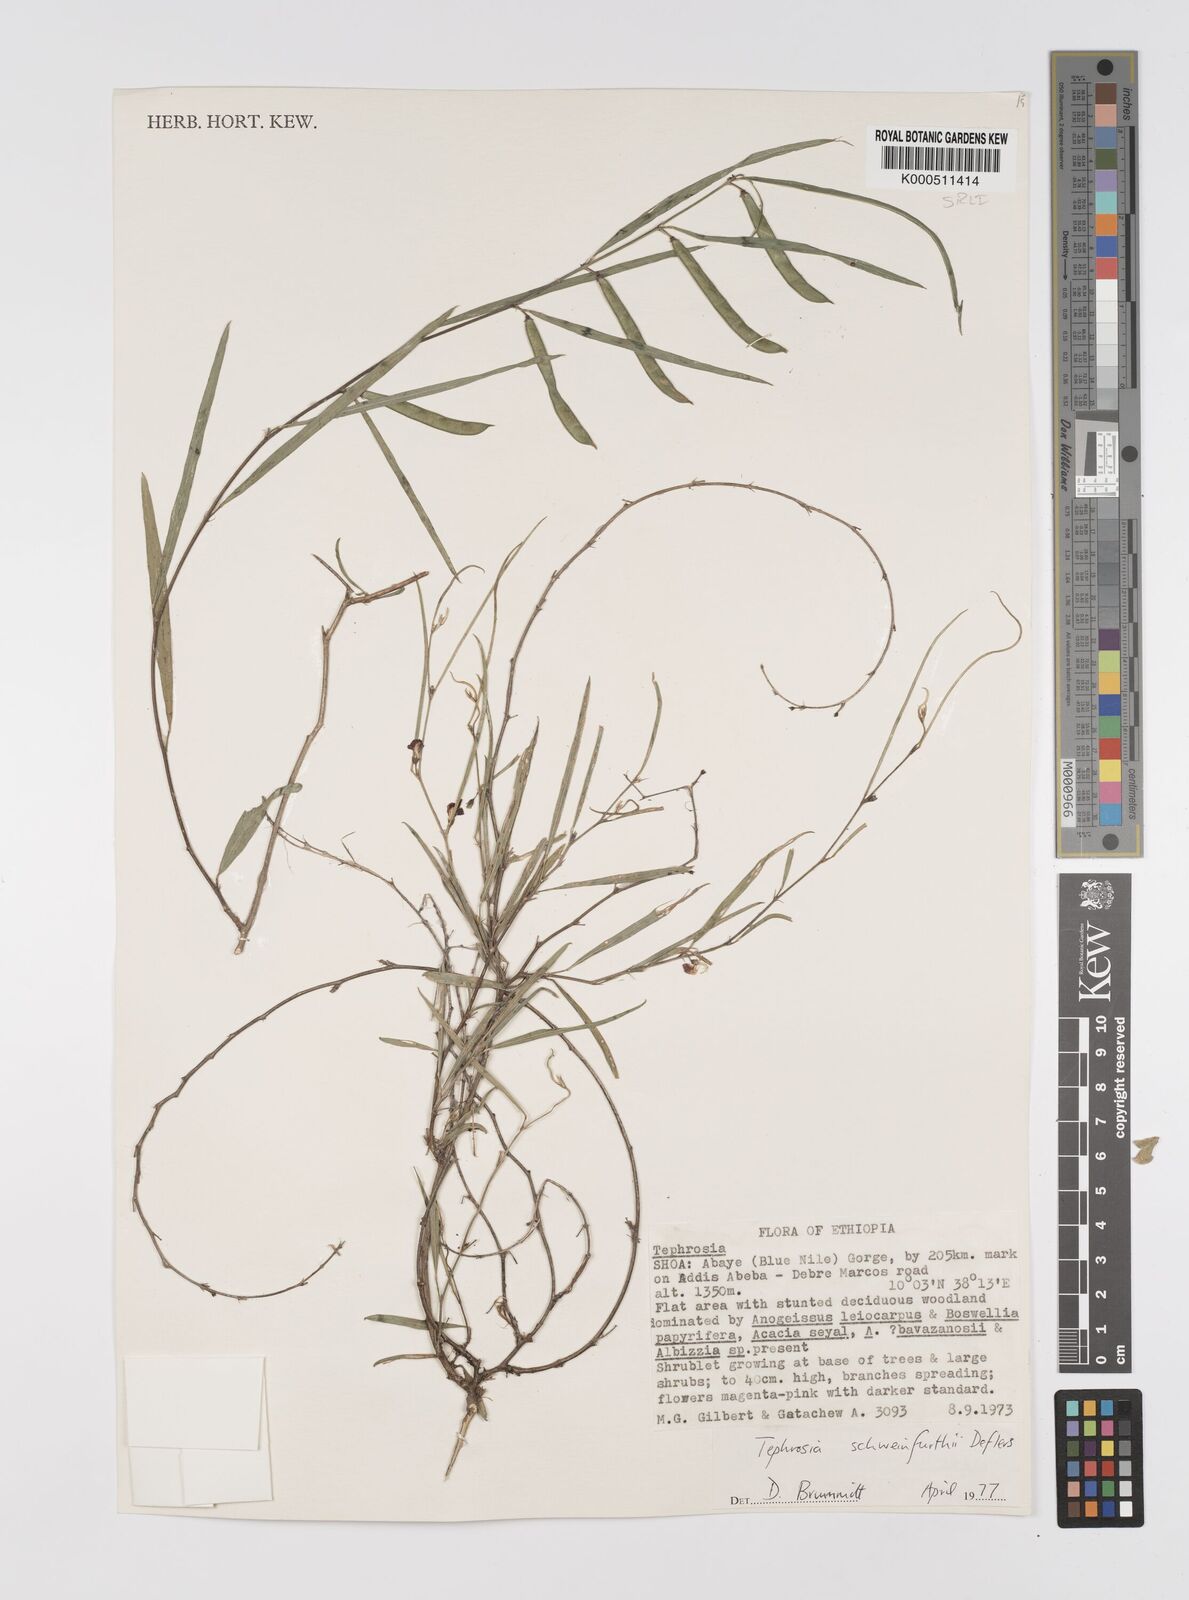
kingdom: Plantae
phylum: Tracheophyta
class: Magnoliopsida
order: Fabales
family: Fabaceae
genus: Tephrosia
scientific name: Tephrosia heterophylla
